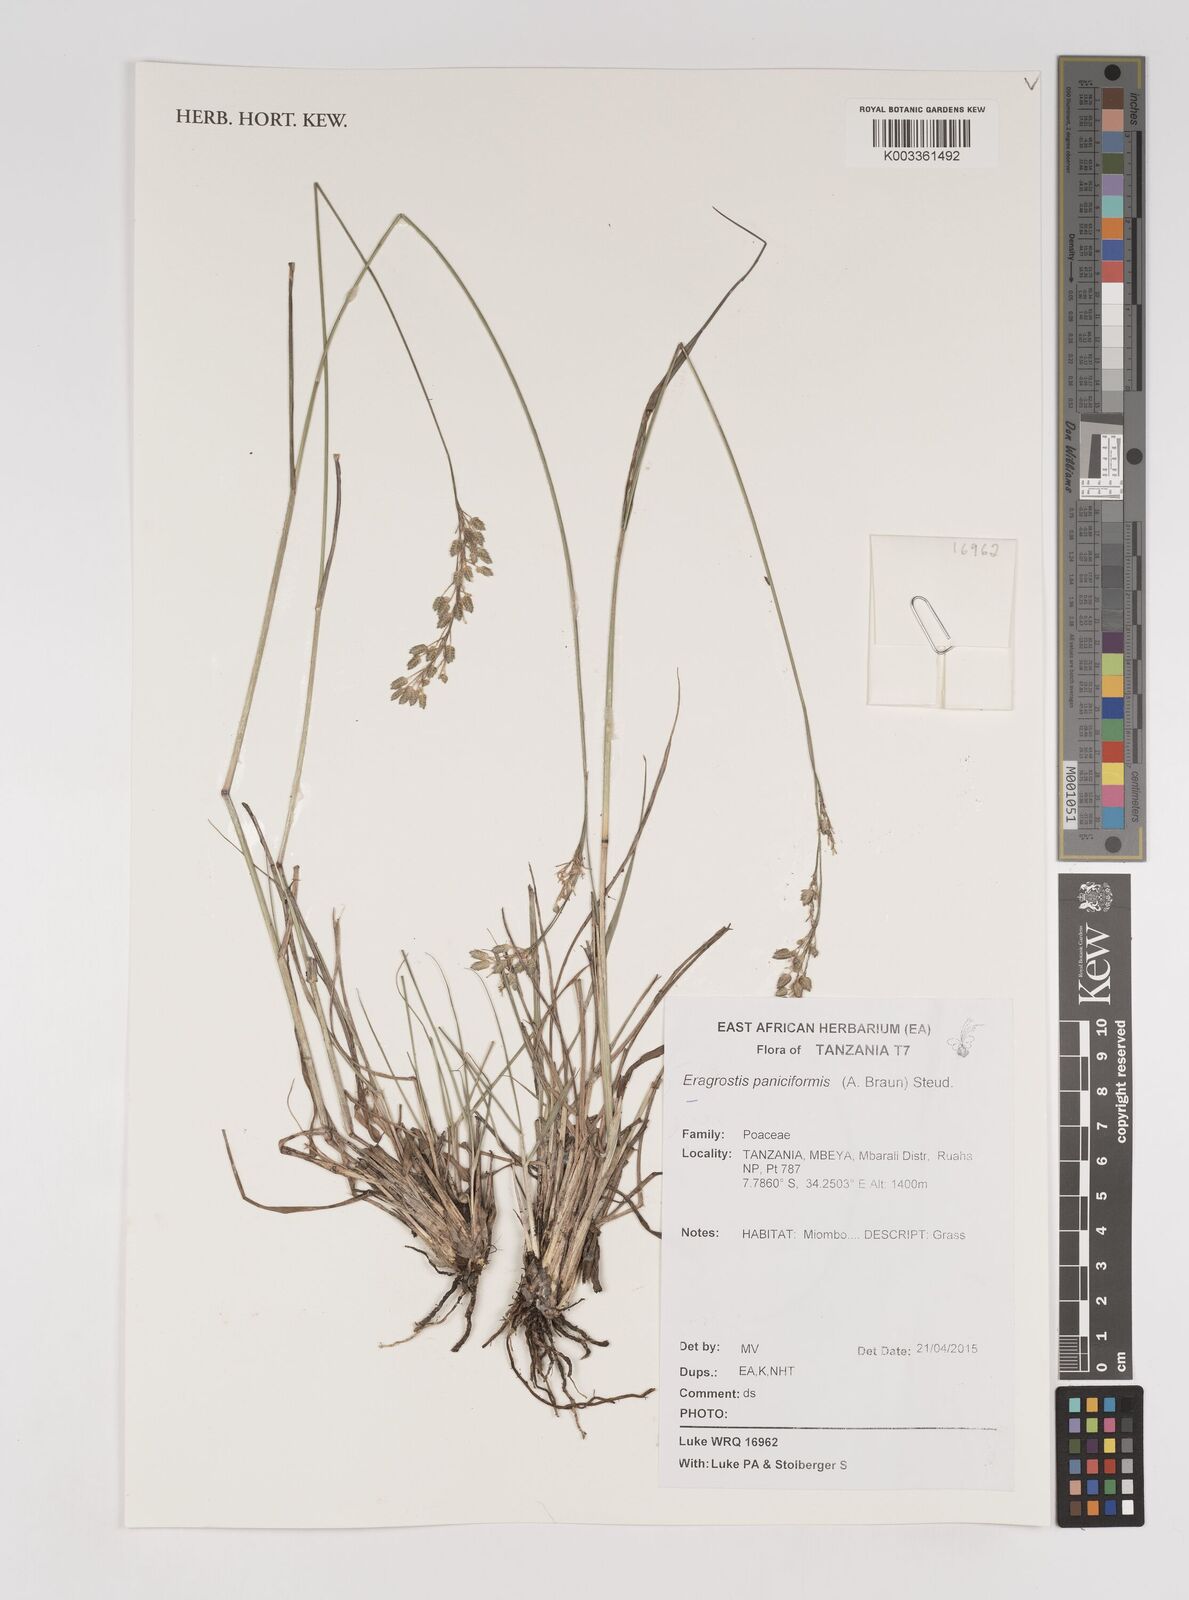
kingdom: Plantae
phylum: Tracheophyta
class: Liliopsida
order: Poales
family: Poaceae
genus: Eragrostis
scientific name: Eragrostis paniciformis
